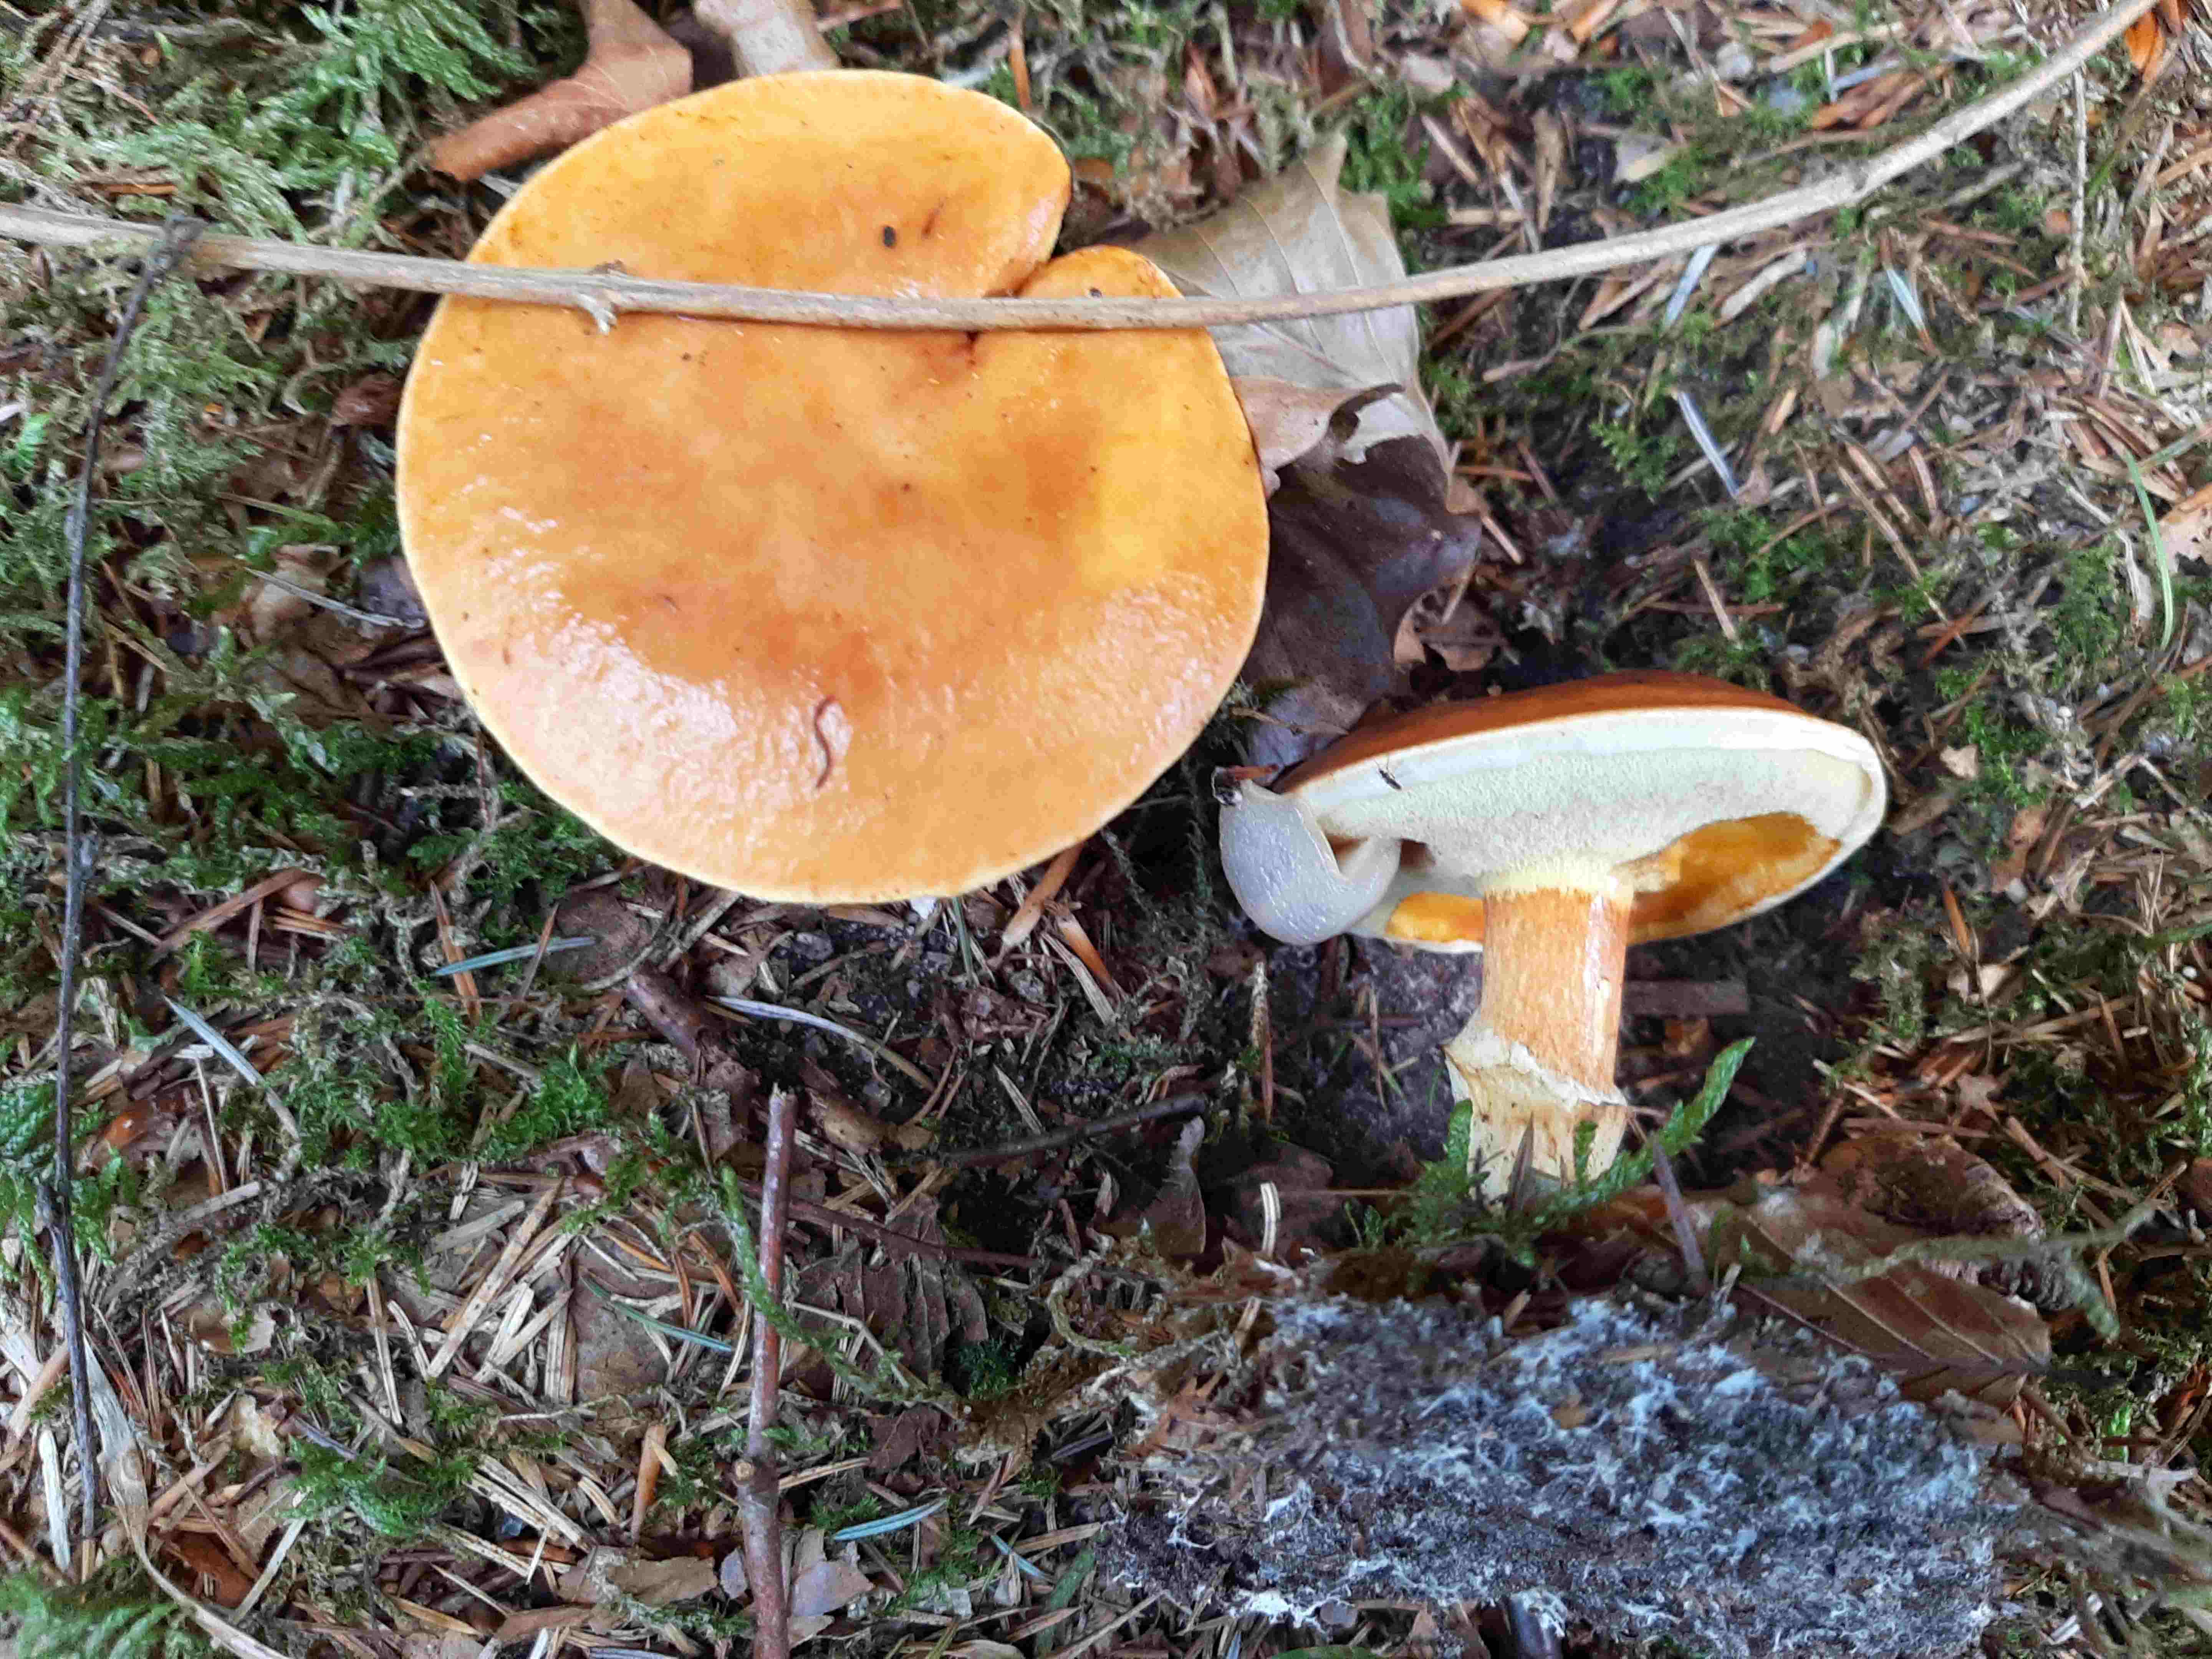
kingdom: Fungi
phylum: Basidiomycota
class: Agaricomycetes
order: Boletales
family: Suillaceae
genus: Suillus
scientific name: Suillus grevillei
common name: lærke-slimrørhat
